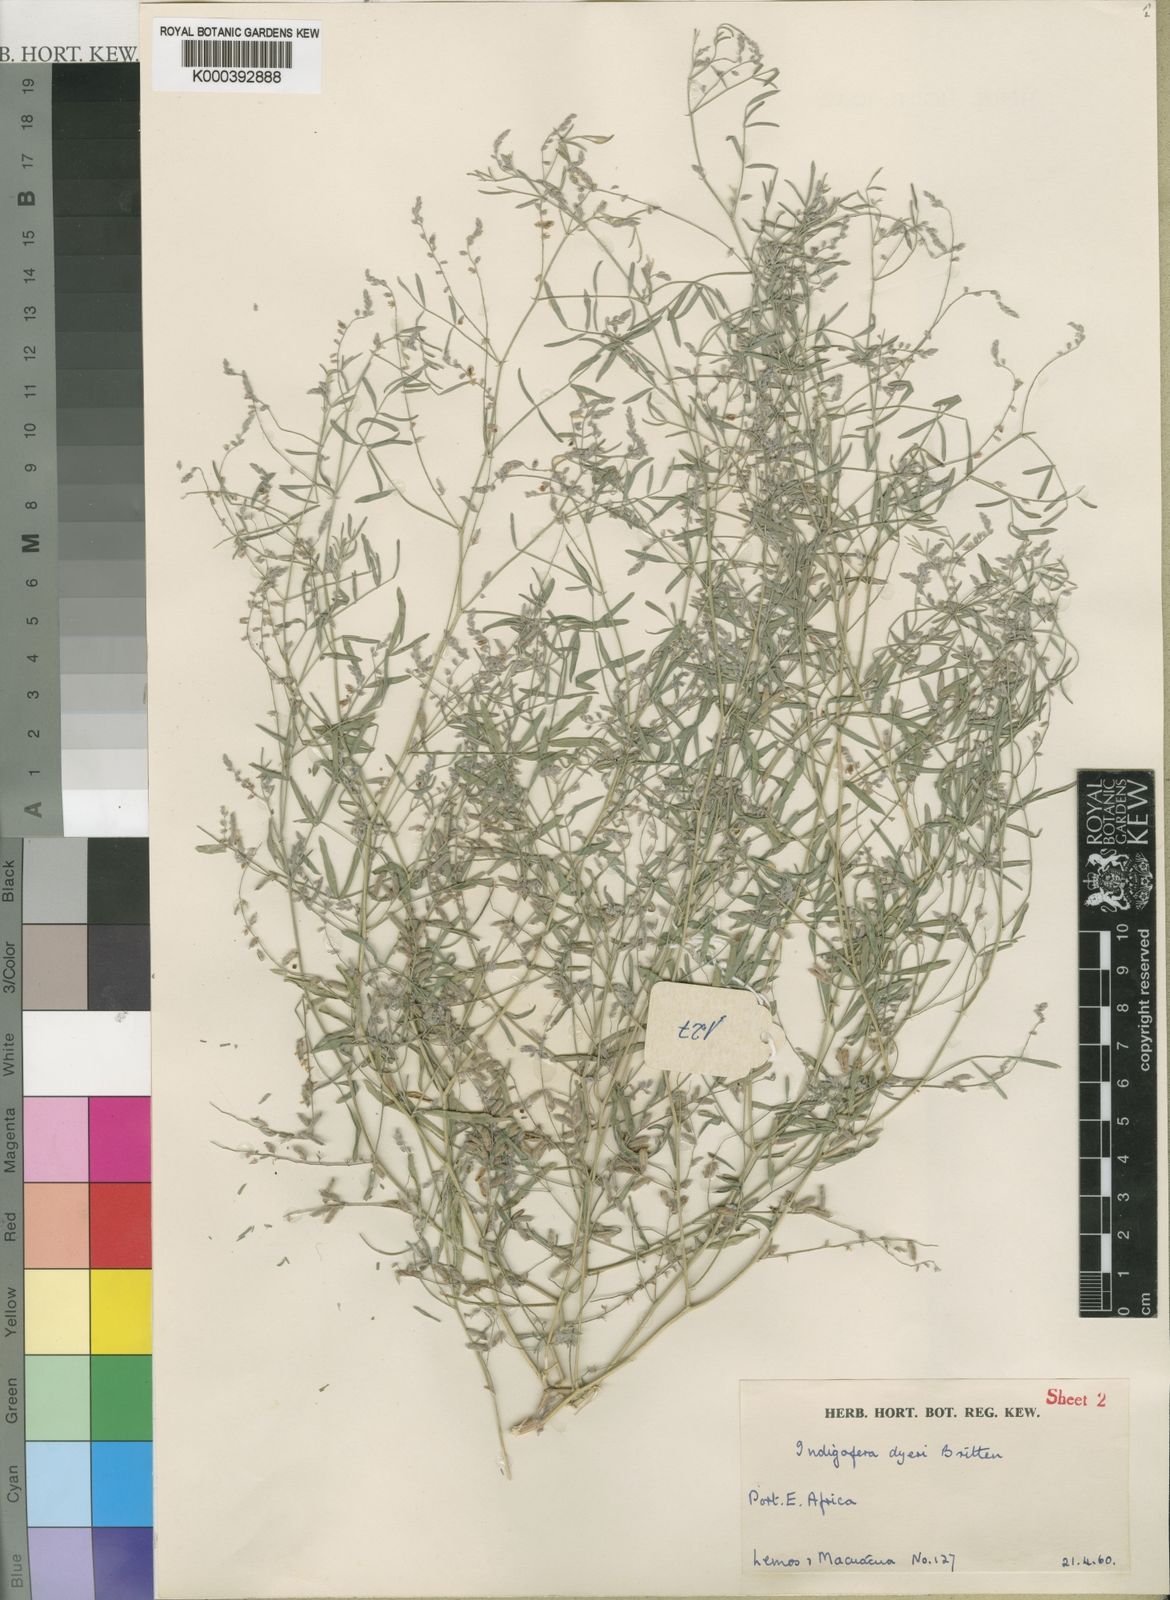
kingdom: Plantae
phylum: Tracheophyta
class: Magnoliopsida
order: Fabales
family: Fabaceae
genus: Indigofera
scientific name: Indigofera dyeri
